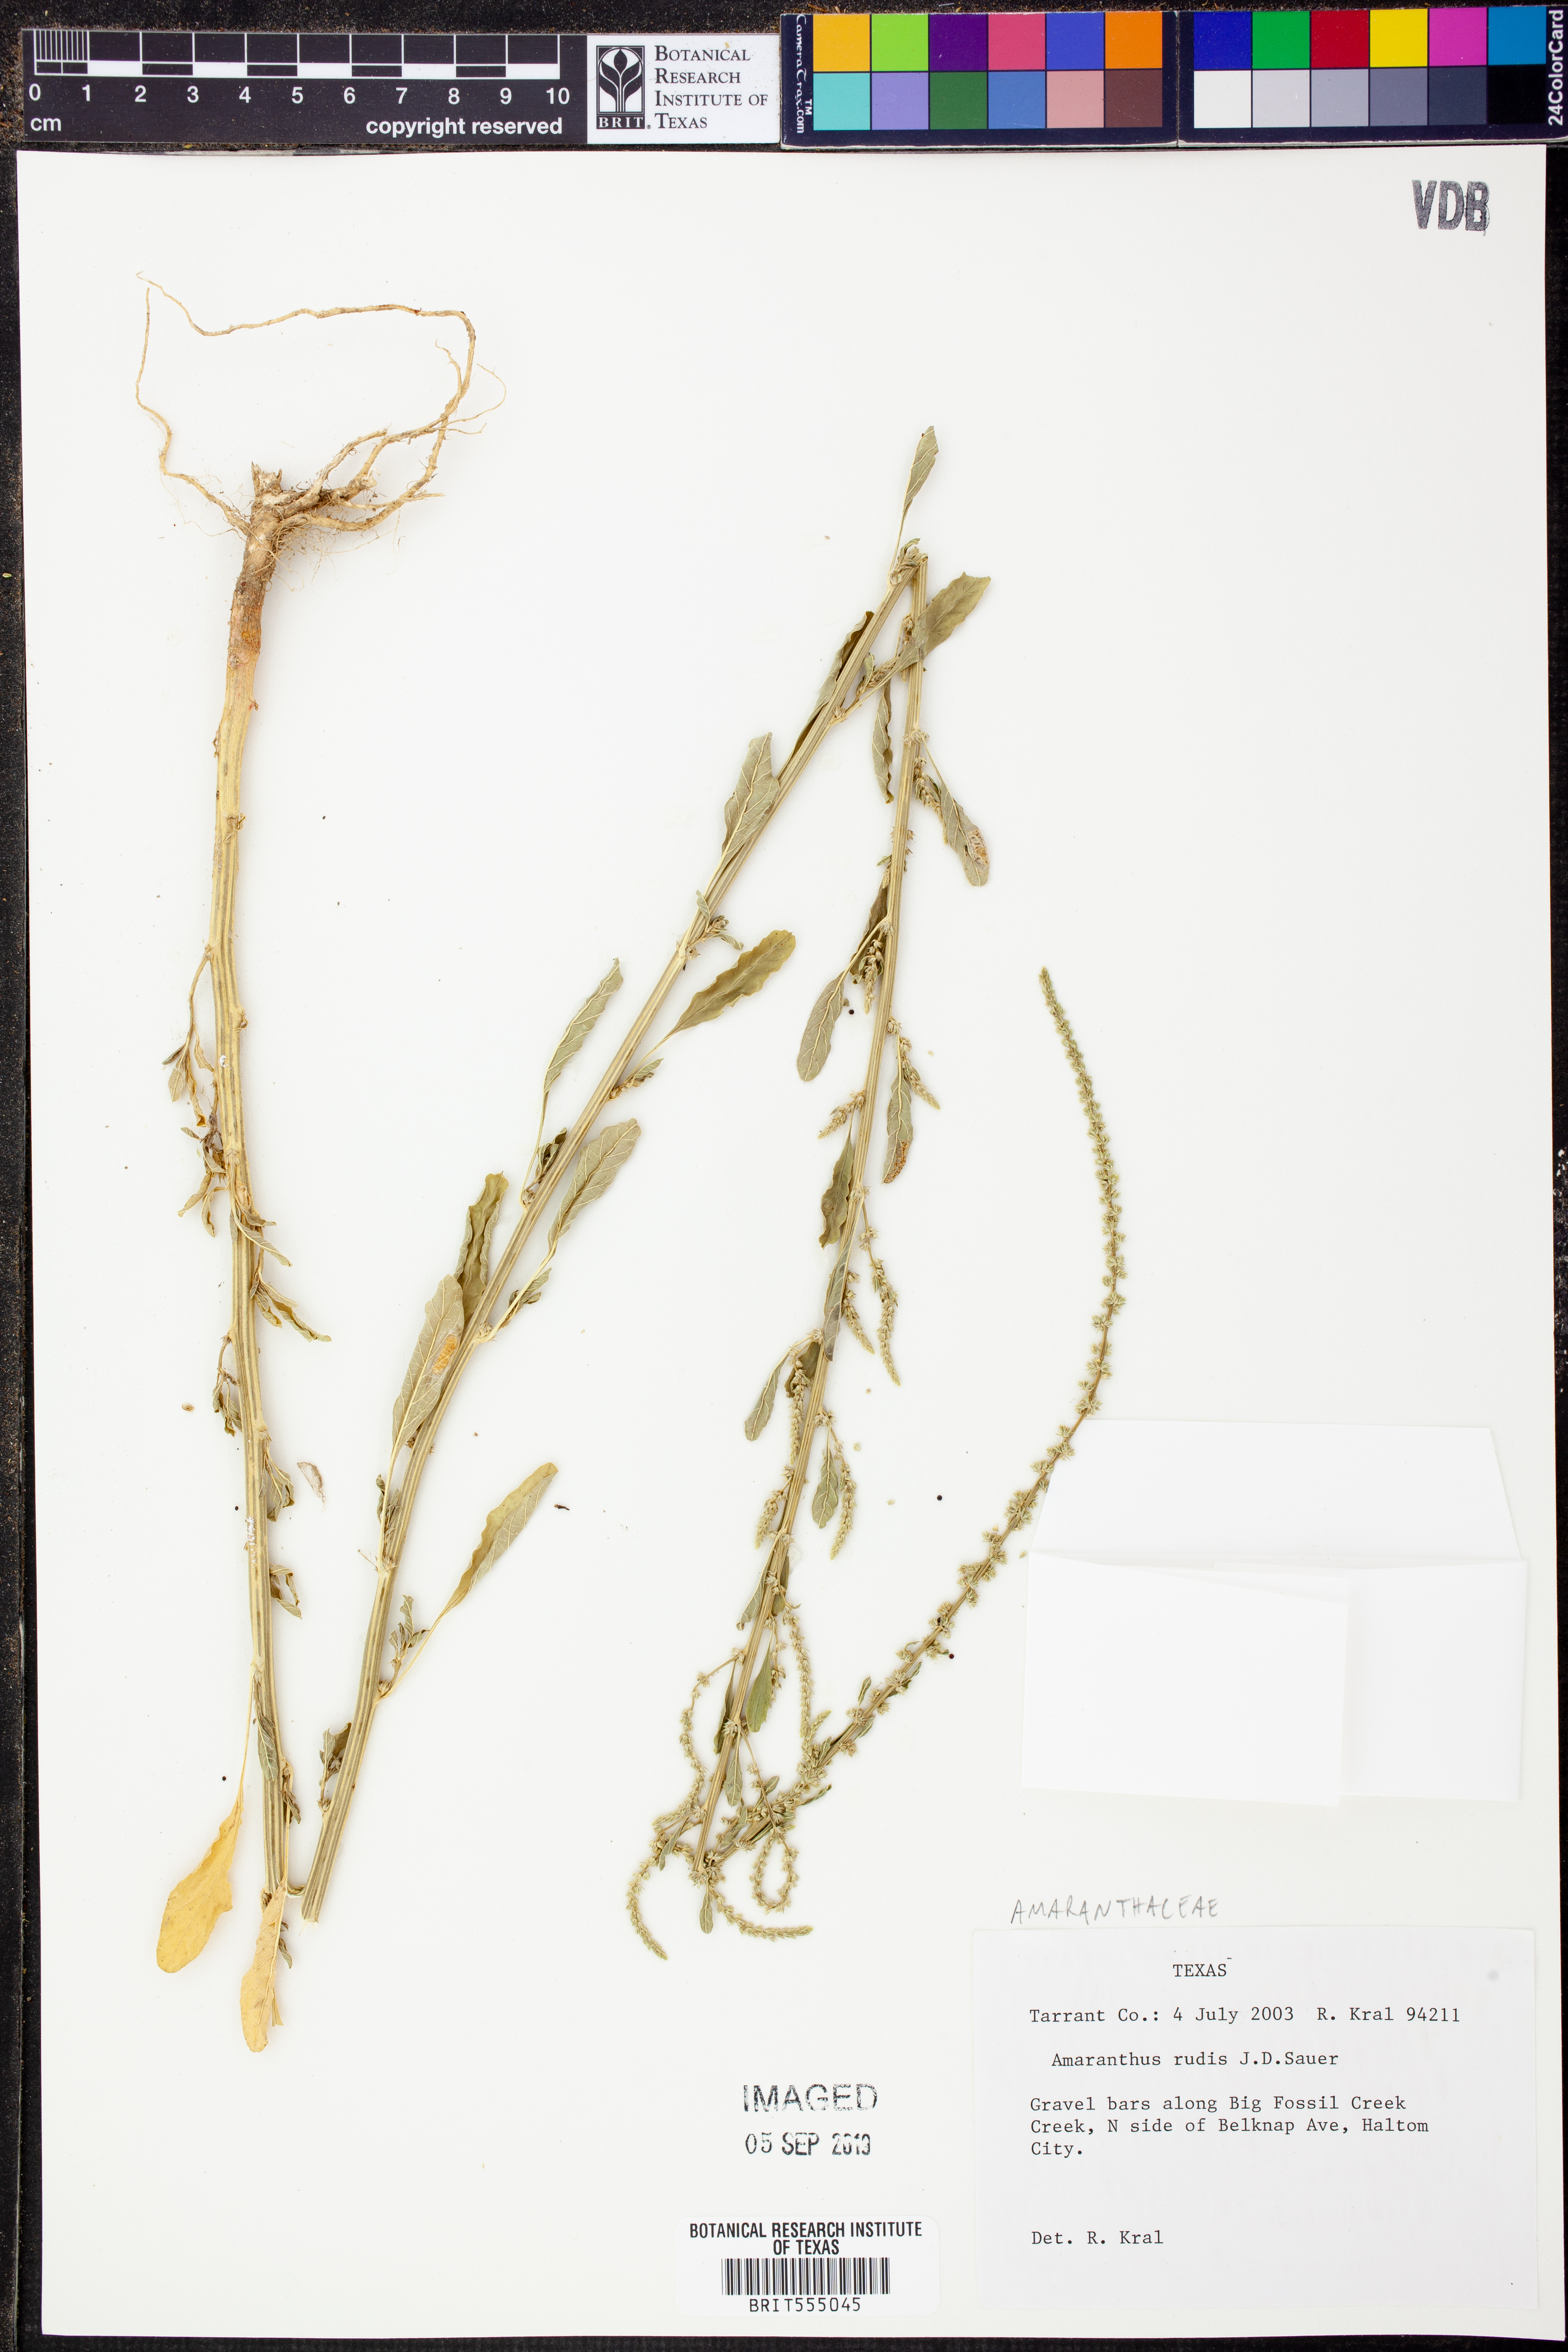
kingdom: Plantae
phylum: Tracheophyta
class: Magnoliopsida
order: Caryophyllales
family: Amaranthaceae
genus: Amaranthus
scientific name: Amaranthus tuberculatus
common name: Rough-fruit amaranth
